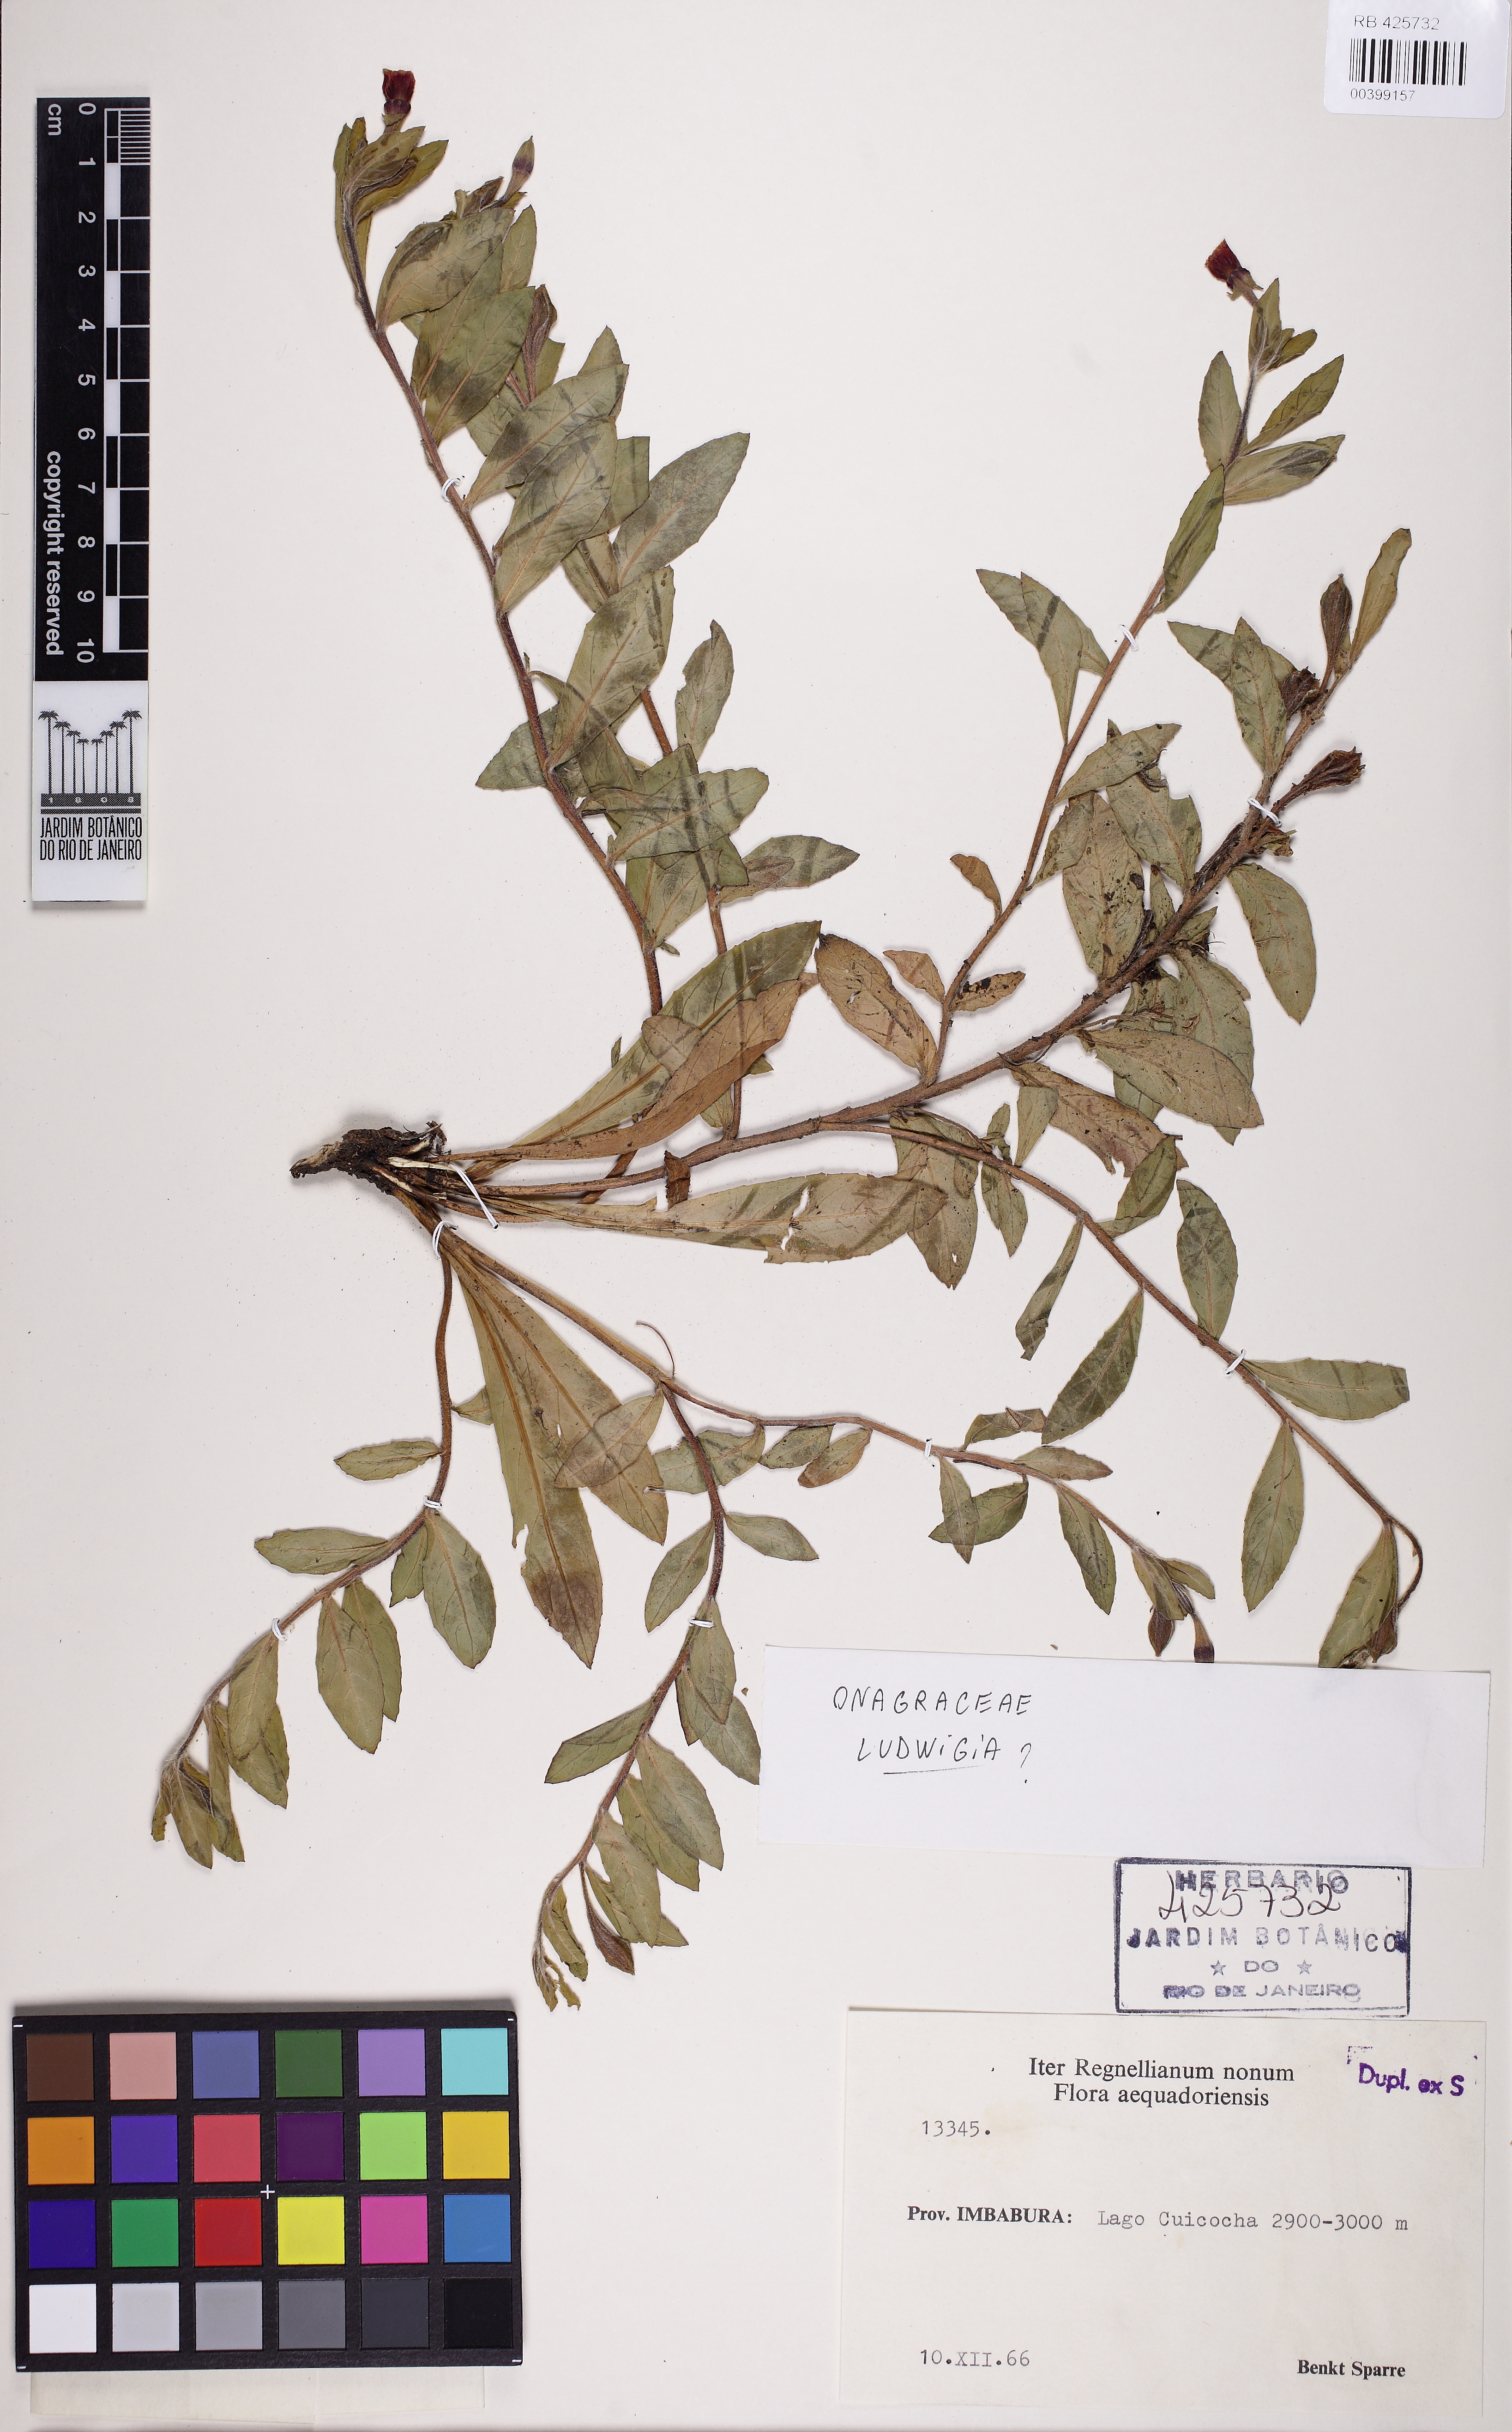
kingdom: Plantae
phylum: Tracheophyta
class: Magnoliopsida
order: Myrtales
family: Onagraceae
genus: Ludwigia
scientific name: Ludwigia
